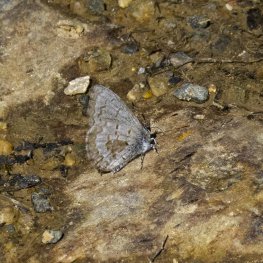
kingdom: Animalia
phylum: Arthropoda
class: Insecta
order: Lepidoptera
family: Lycaenidae
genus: Celastrina
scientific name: Celastrina lucia
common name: Northern Spring Azure
